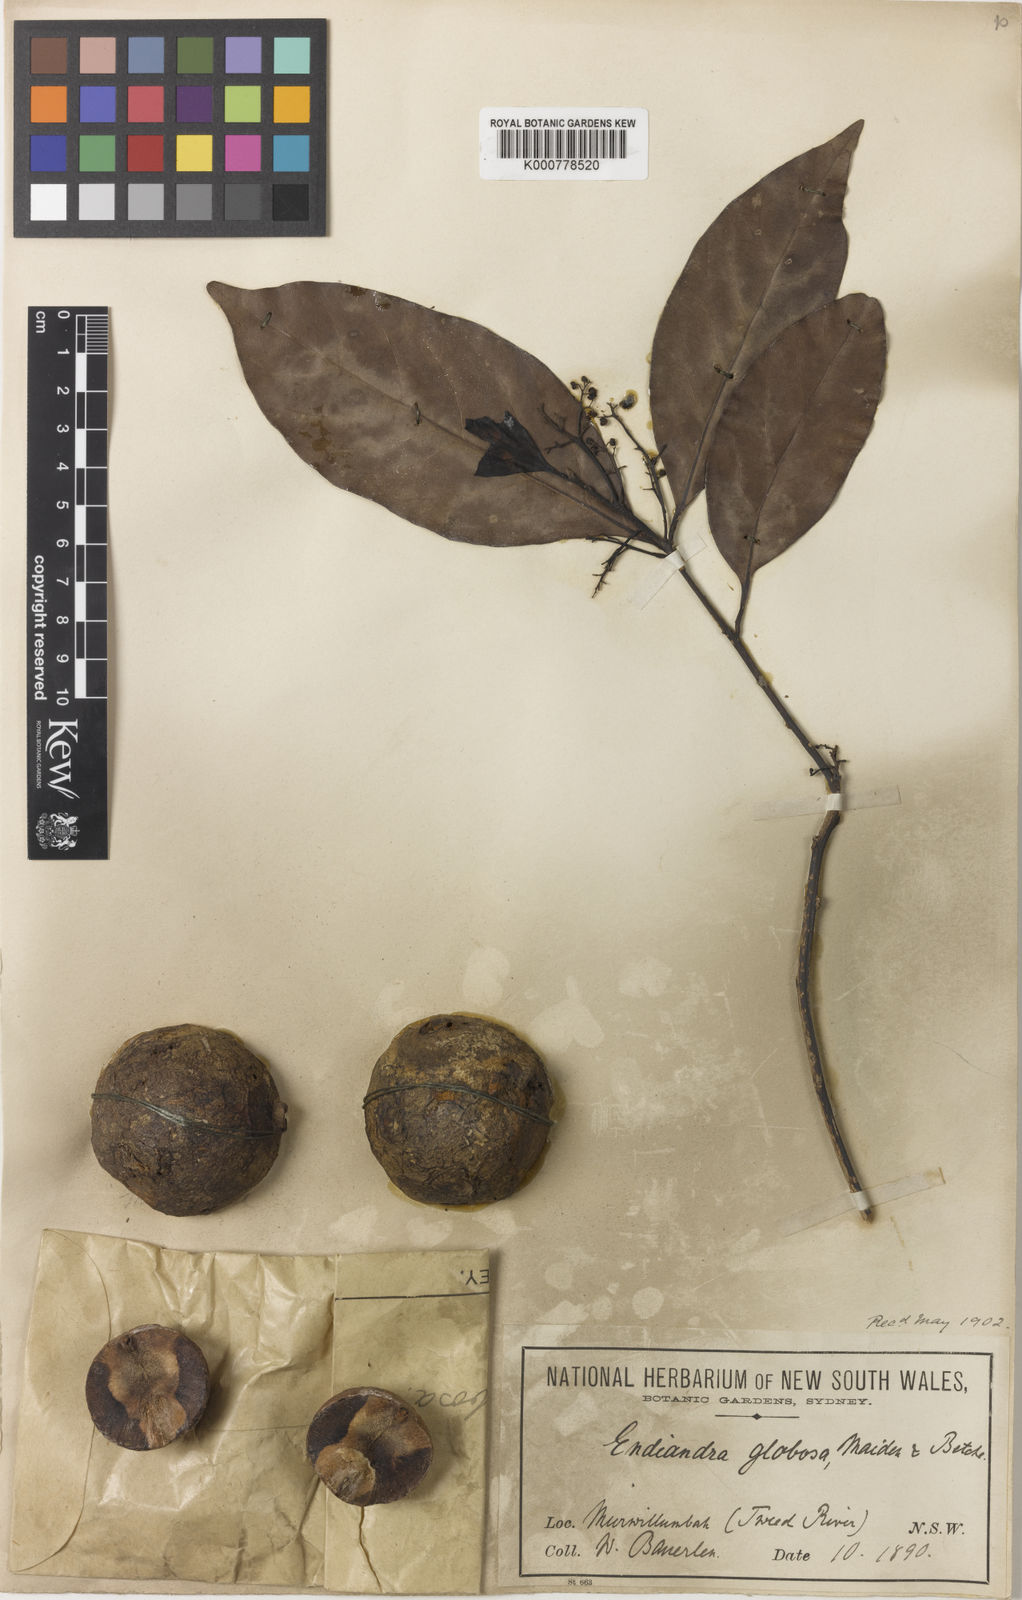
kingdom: Plantae
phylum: Tracheophyta
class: Magnoliopsida
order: Laurales
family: Lauraceae
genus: Endiandra
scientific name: Endiandra globosa
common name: Ball-fruited walnut
